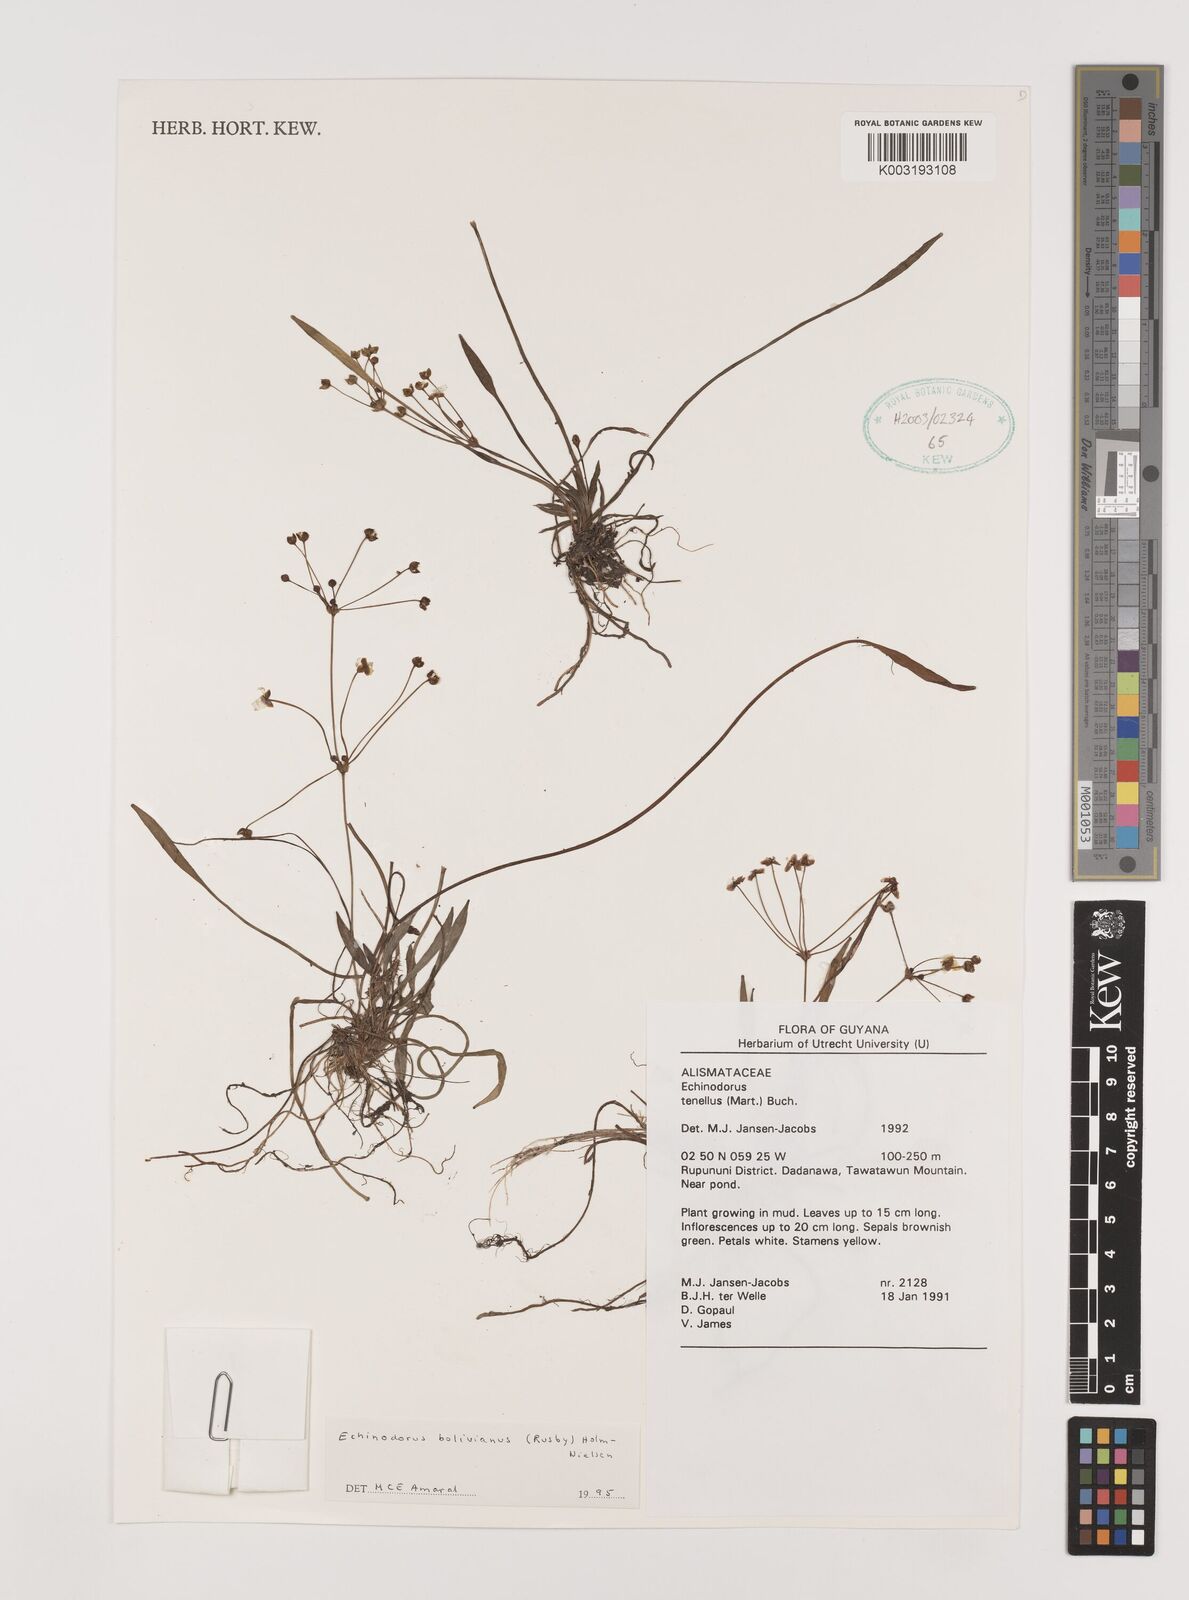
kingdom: Plantae
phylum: Tracheophyta
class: Liliopsida
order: Alismatales
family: Alismataceae
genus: Helanthium
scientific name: Helanthium bolivianum
